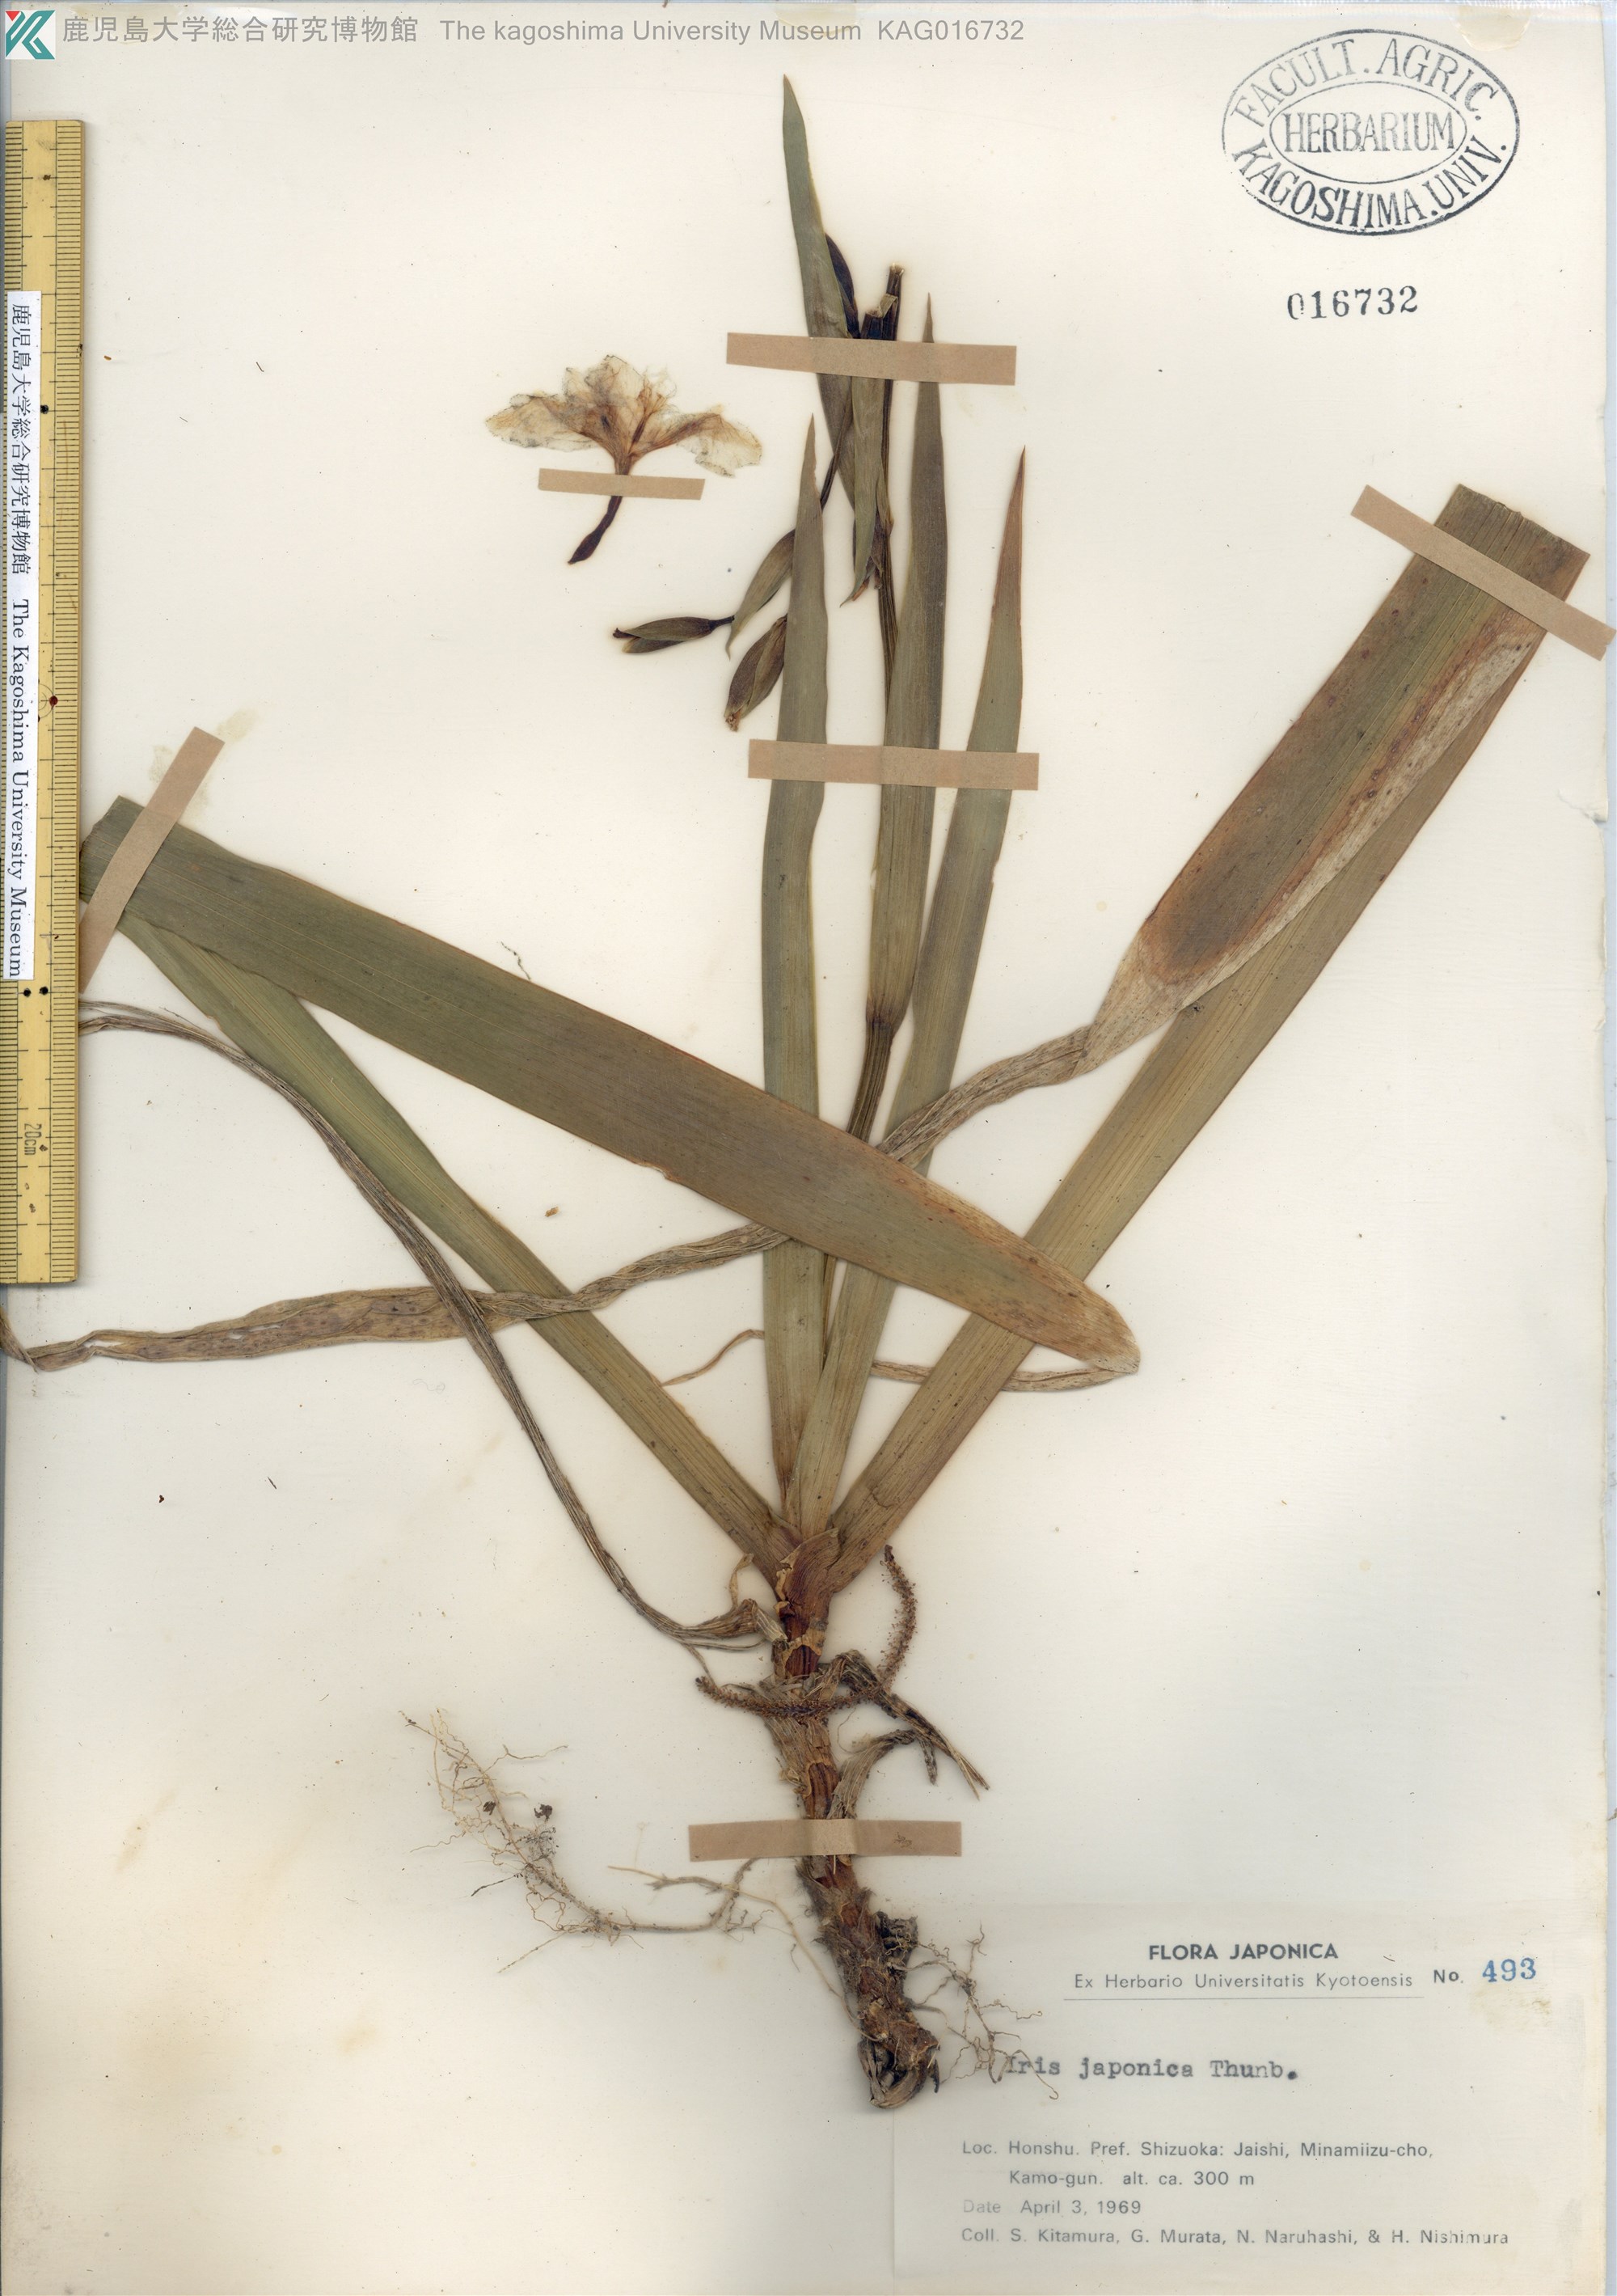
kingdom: Plantae
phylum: Tracheophyta
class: Liliopsida
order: Asparagales
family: Iridaceae
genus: Iris
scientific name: Iris japonica
